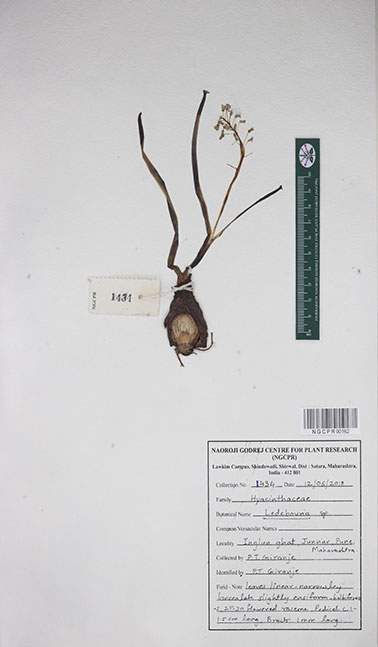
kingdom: Plantae
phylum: Tracheophyta
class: Liliopsida
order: Asparagales
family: Asparagaceae
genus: Ledebouria
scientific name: Ledebouria
